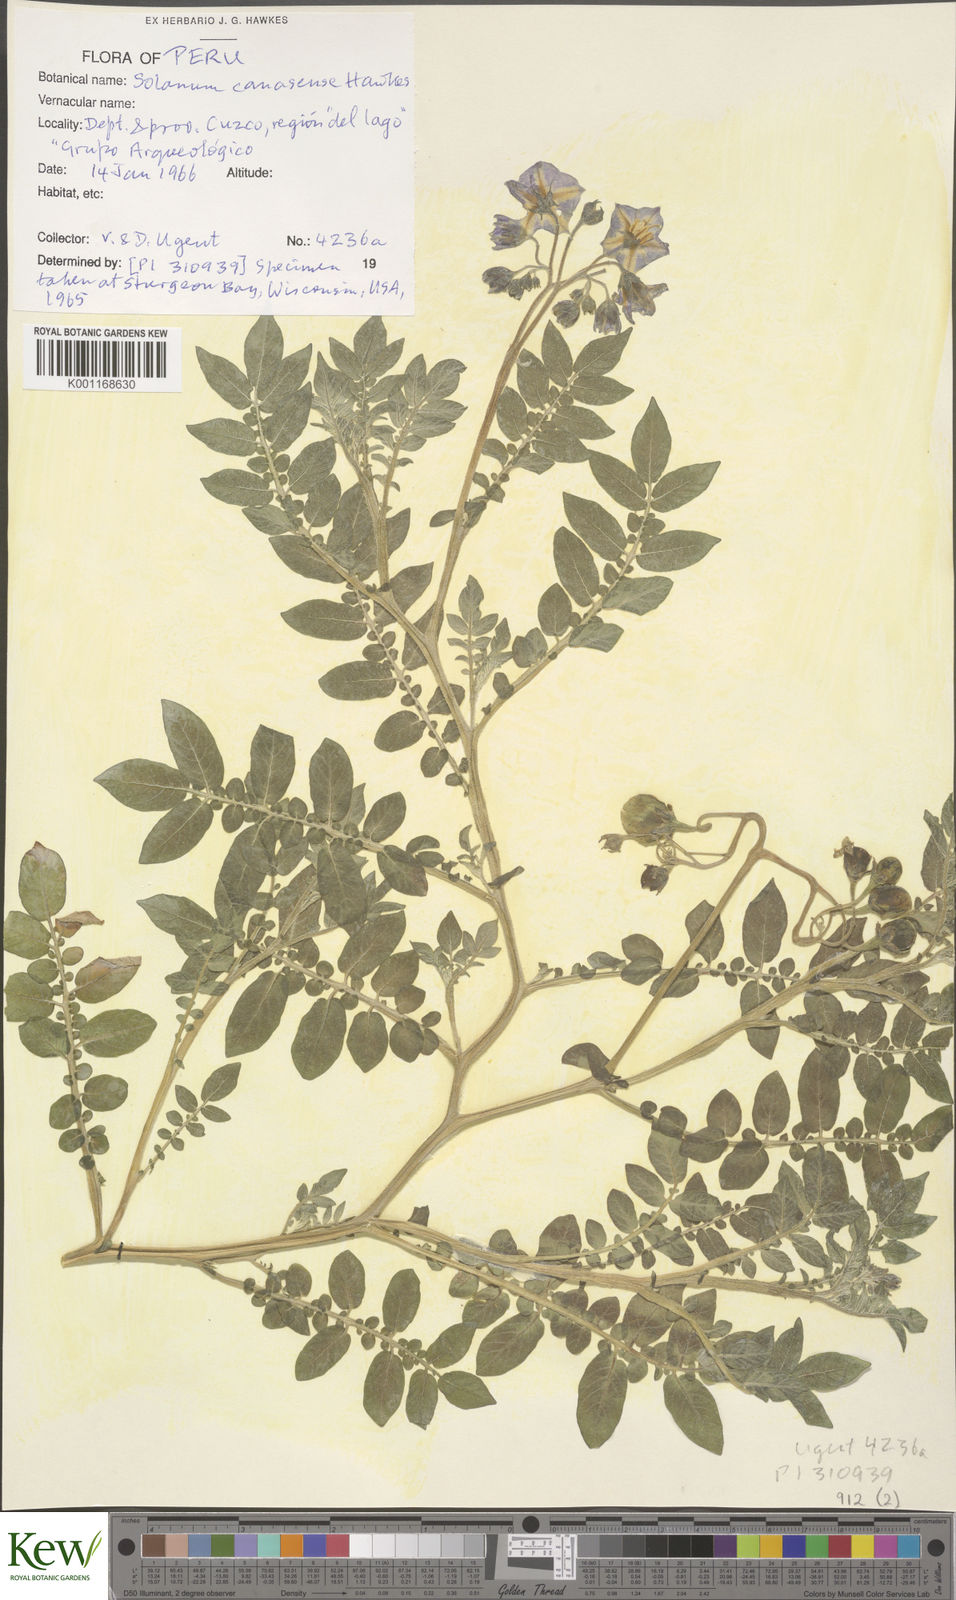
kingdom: Plantae
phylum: Tracheophyta
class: Magnoliopsida
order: Solanales
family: Solanaceae
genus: Solanum
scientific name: Solanum candolleanum
